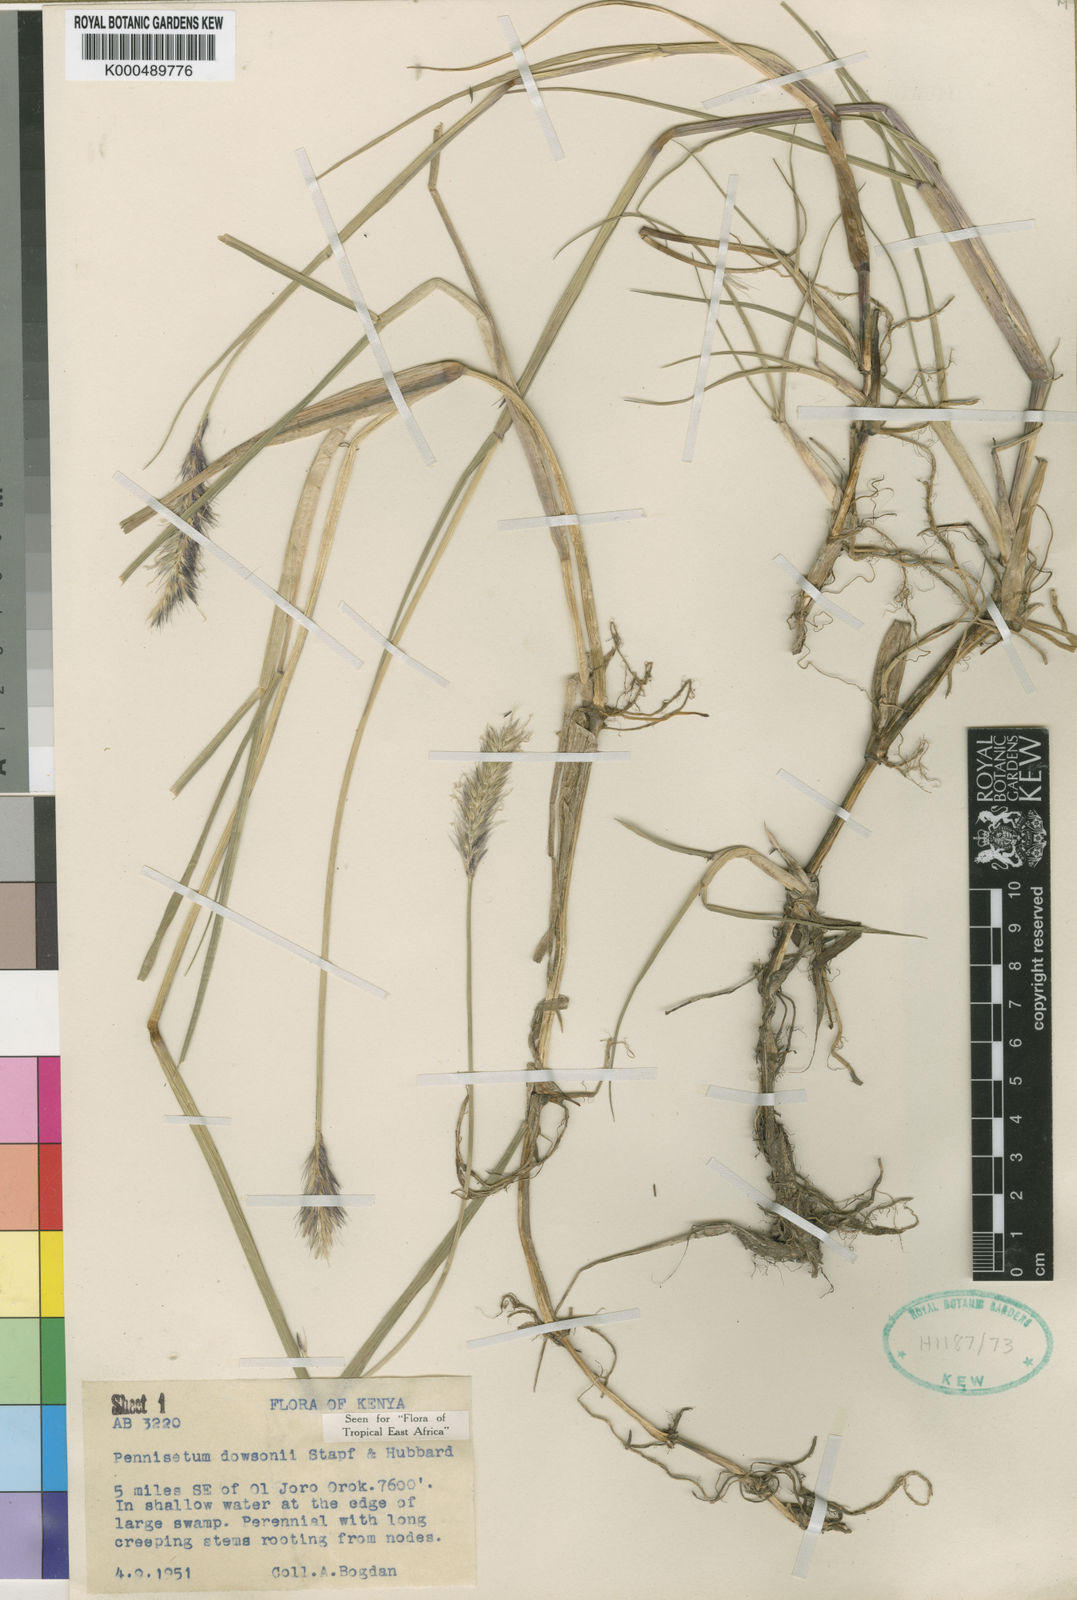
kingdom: Plantae
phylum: Tracheophyta
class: Liliopsida
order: Poales
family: Poaceae
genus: Cenchrus
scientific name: Cenchrus Pennisetum spec
